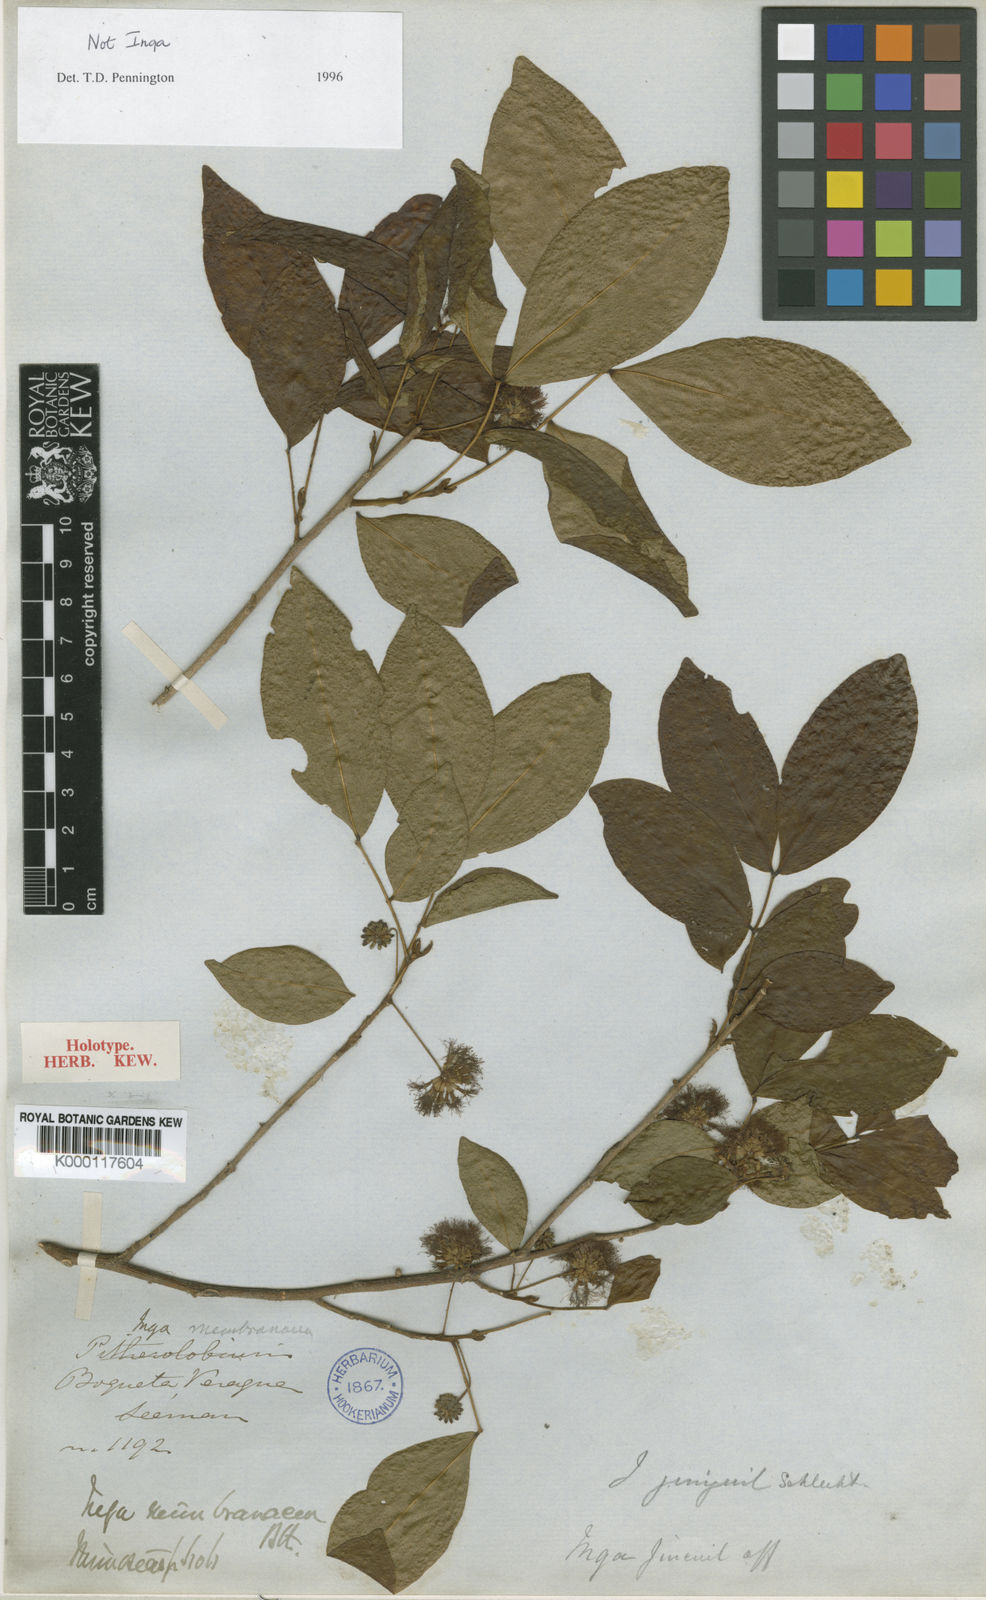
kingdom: Plantae
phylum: Tracheophyta
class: Magnoliopsida
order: Fabales
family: Fabaceae
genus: Cojoba
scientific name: Cojoba rufescens
